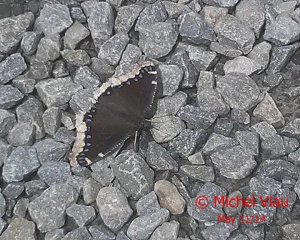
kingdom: Animalia
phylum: Arthropoda
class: Insecta
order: Lepidoptera
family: Nymphalidae
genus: Nymphalis
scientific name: Nymphalis antiopa
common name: Mourning Cloak
